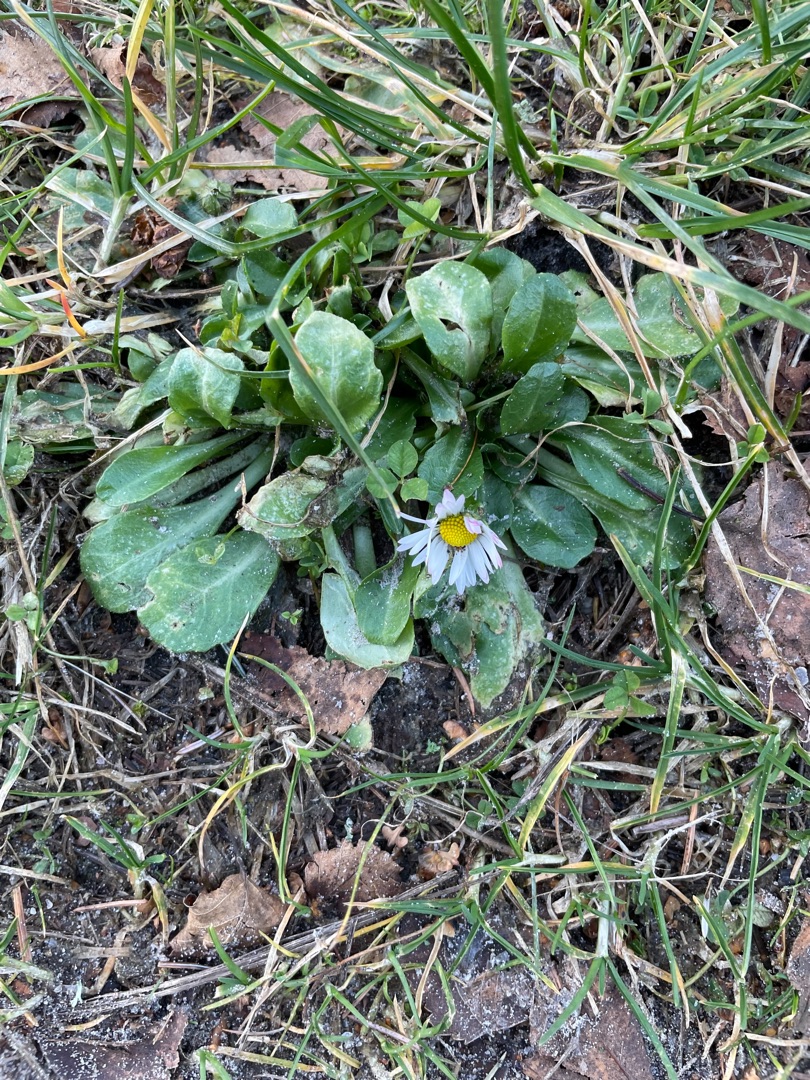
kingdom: Plantae
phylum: Tracheophyta
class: Magnoliopsida
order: Asterales
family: Asteraceae
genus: Bellis
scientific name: Bellis perennis
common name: Tusindfryd
